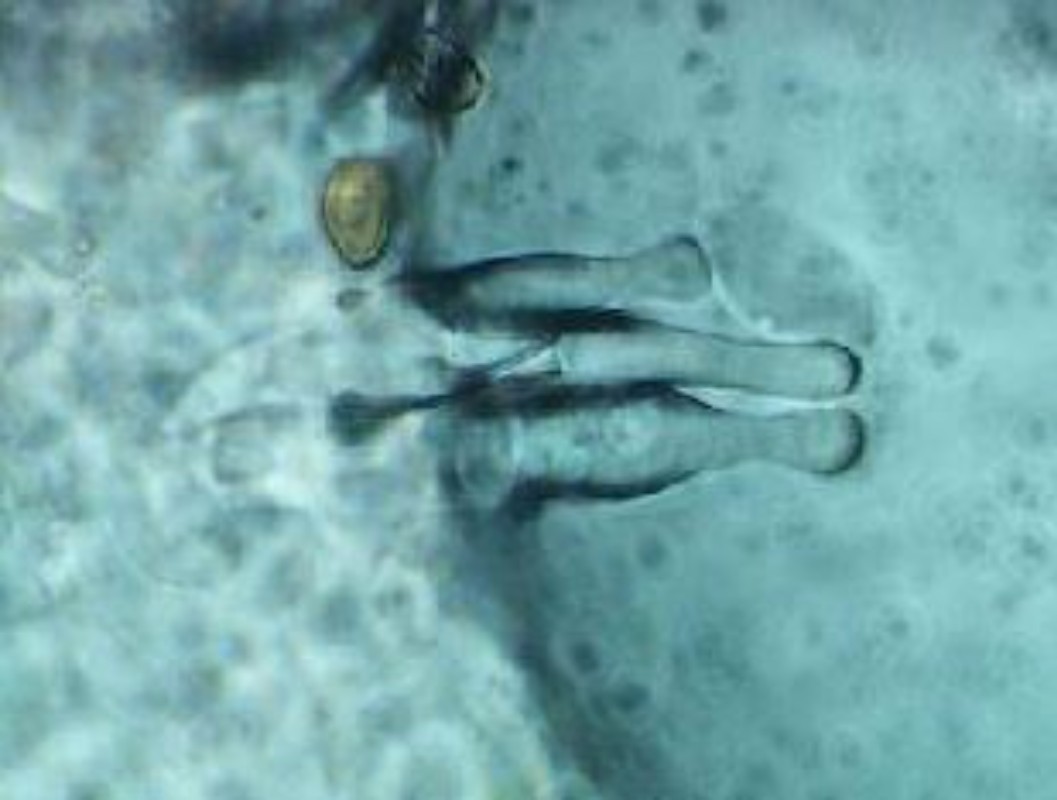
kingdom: Fungi
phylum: Basidiomycota
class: Agaricomycetes
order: Agaricales
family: Strophariaceae
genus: Agrocybe
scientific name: Agrocybe vervacti
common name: lav agerhat
